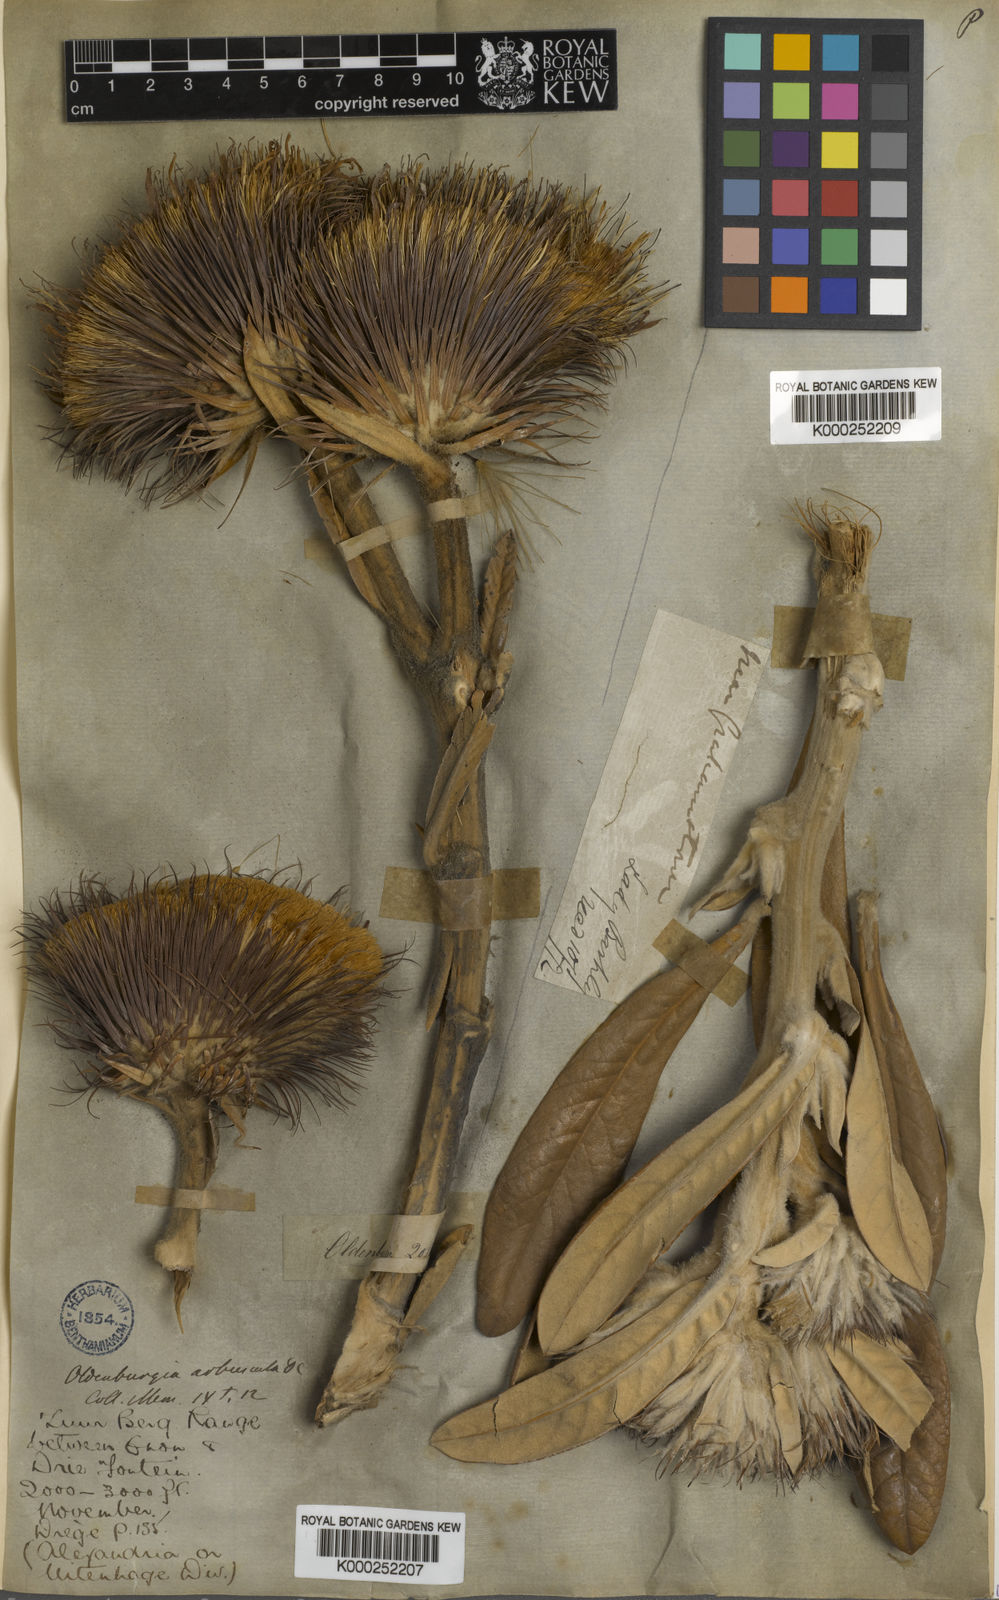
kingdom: Plantae
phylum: Tracheophyta
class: Magnoliopsida
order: Asterales
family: Asteraceae
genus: Oldenburgia
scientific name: Oldenburgia grandis
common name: Suurberg cushion bush
